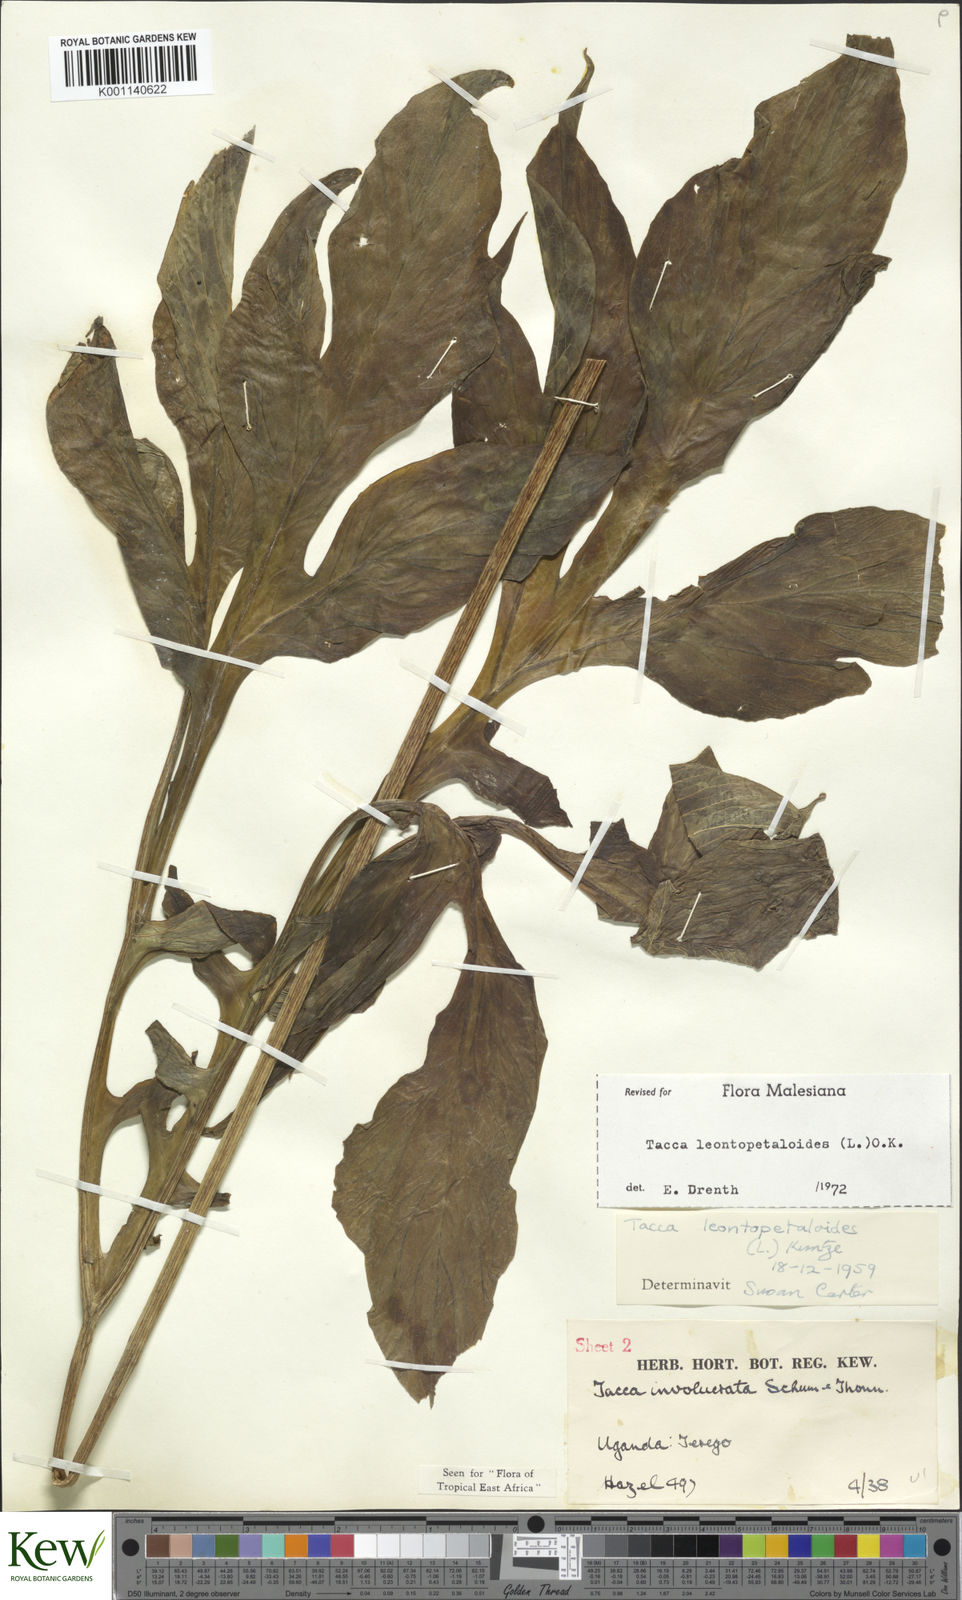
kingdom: Plantae
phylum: Tracheophyta
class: Liliopsida
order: Dioscoreales
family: Dioscoreaceae
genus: Tacca
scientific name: Tacca leontopetaloides
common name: Arrowroot
